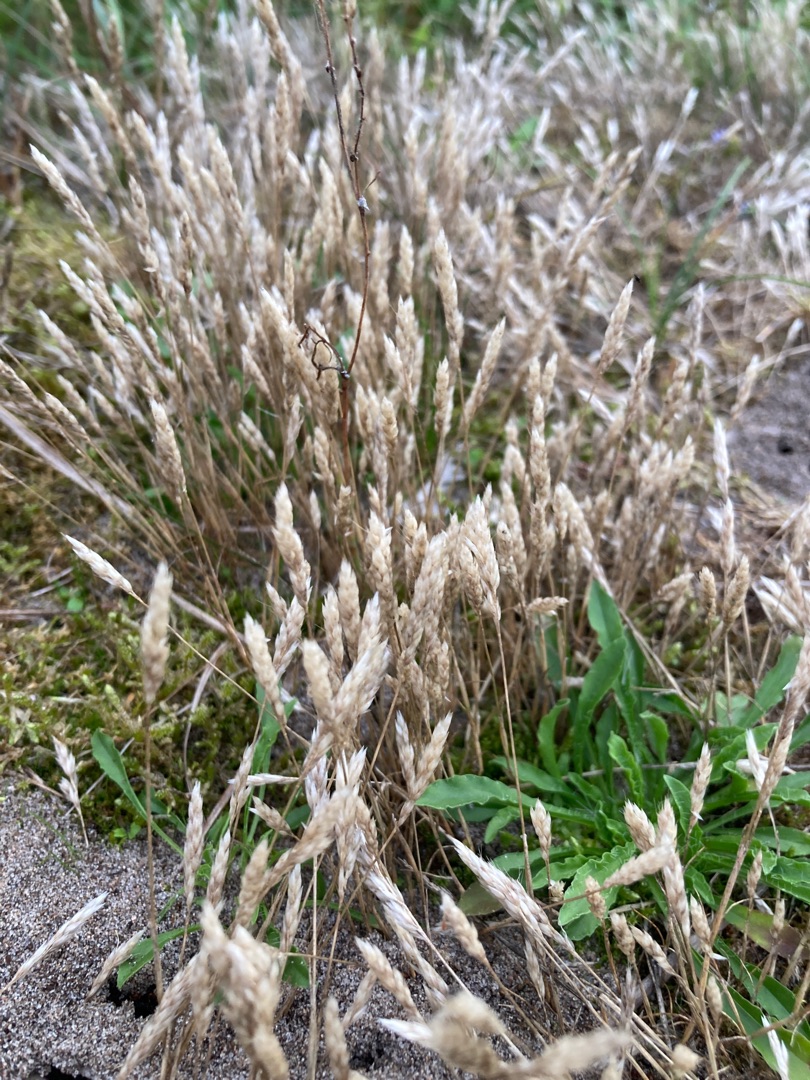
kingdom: Plantae
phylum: Tracheophyta
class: Liliopsida
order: Poales
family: Poaceae
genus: Aira
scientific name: Aira praecox
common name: Tidlig dværgbunke
